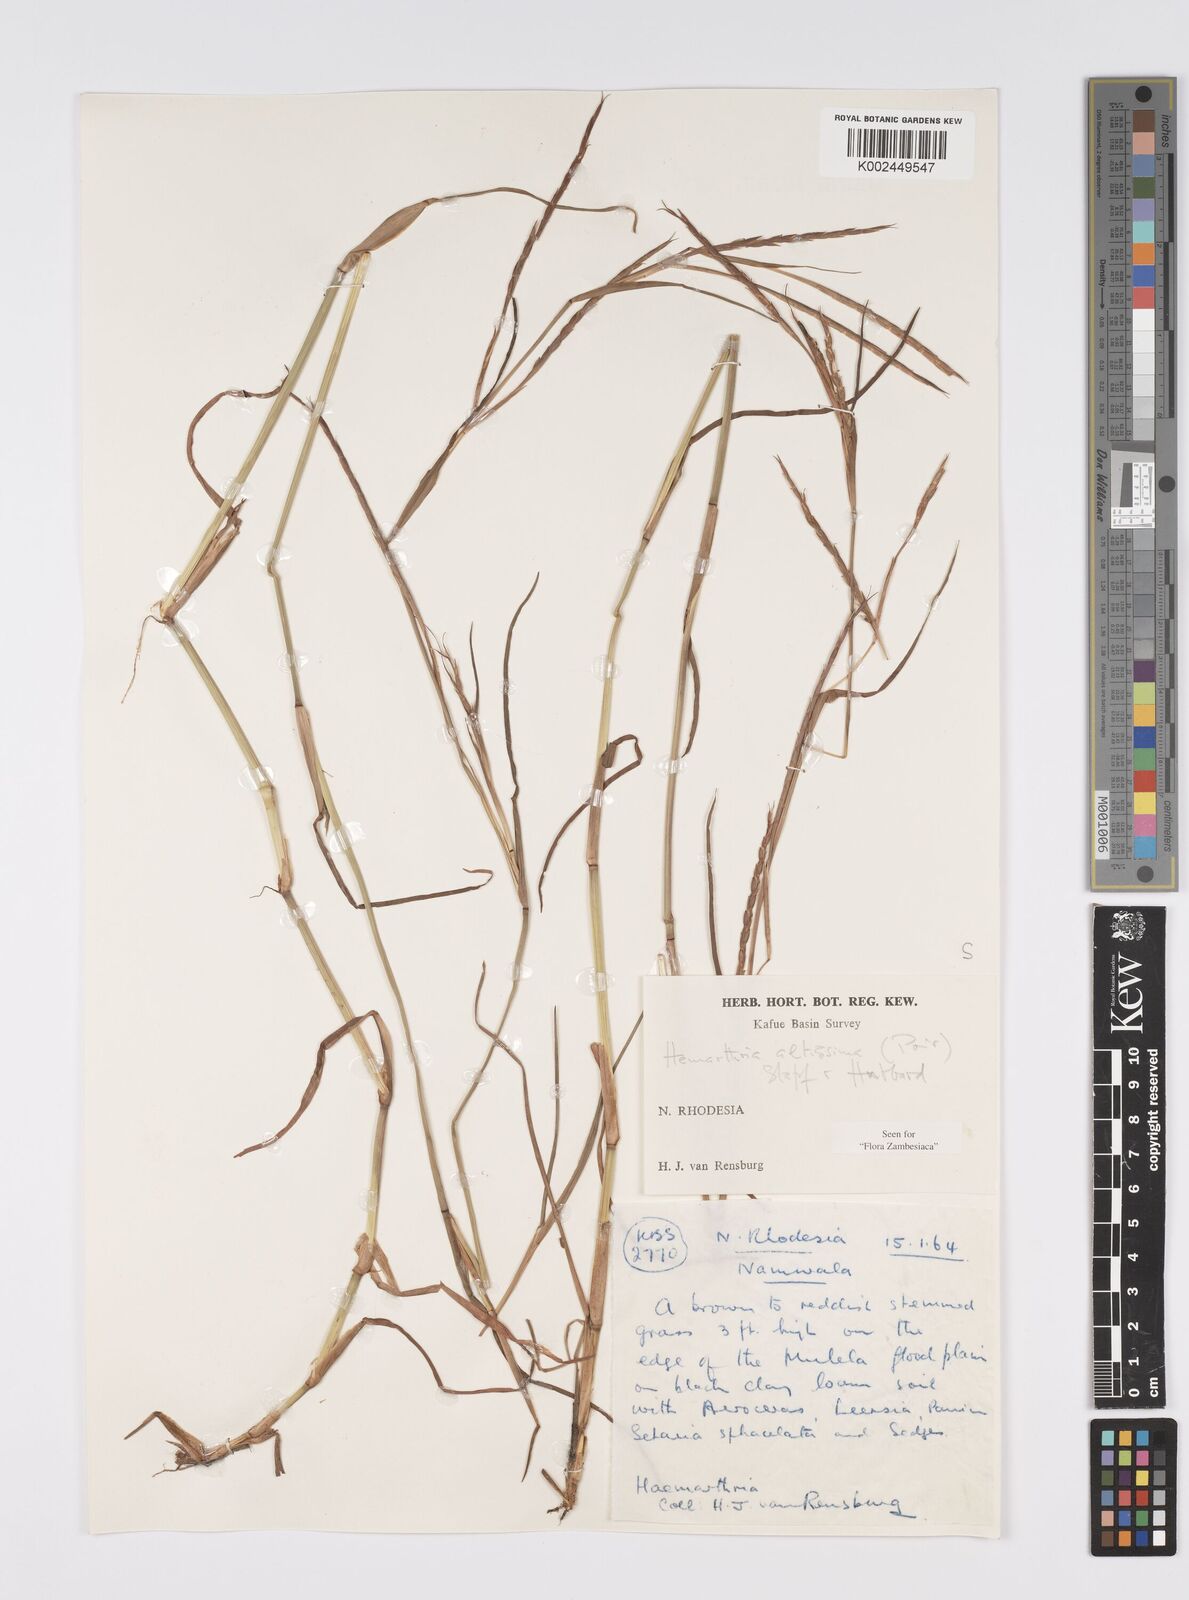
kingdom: Plantae
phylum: Tracheophyta
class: Liliopsida
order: Poales
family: Poaceae
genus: Hemarthria
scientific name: Hemarthria altissima
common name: African jointgrass
